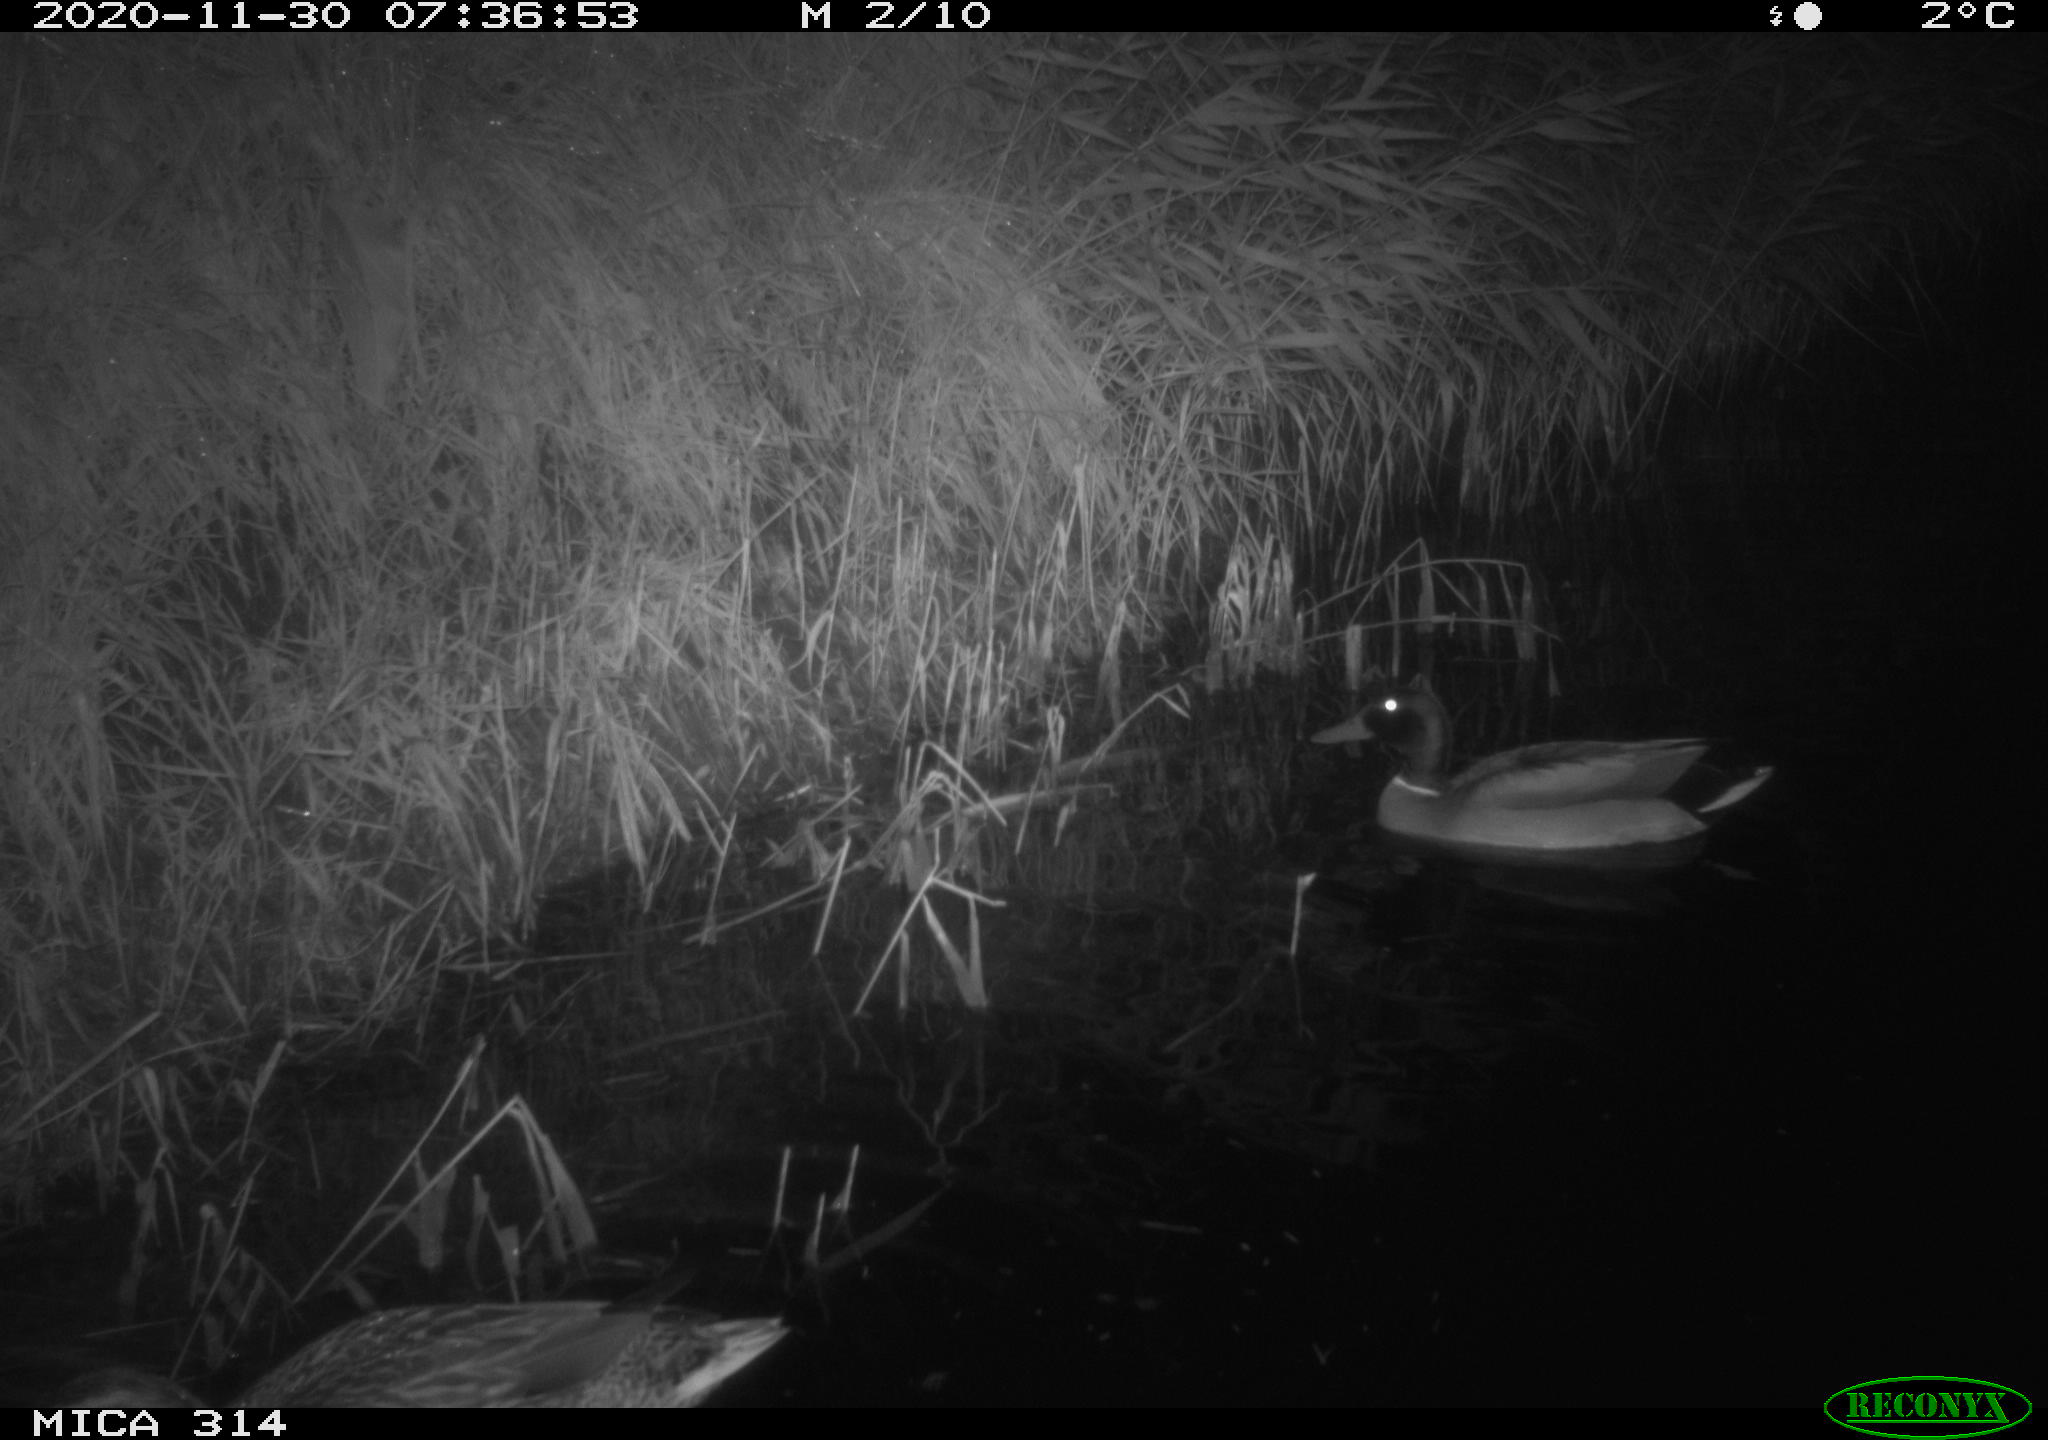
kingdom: Animalia
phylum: Chordata
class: Aves
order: Anseriformes
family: Anatidae
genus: Anas
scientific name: Anas platyrhynchos
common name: Mallard
